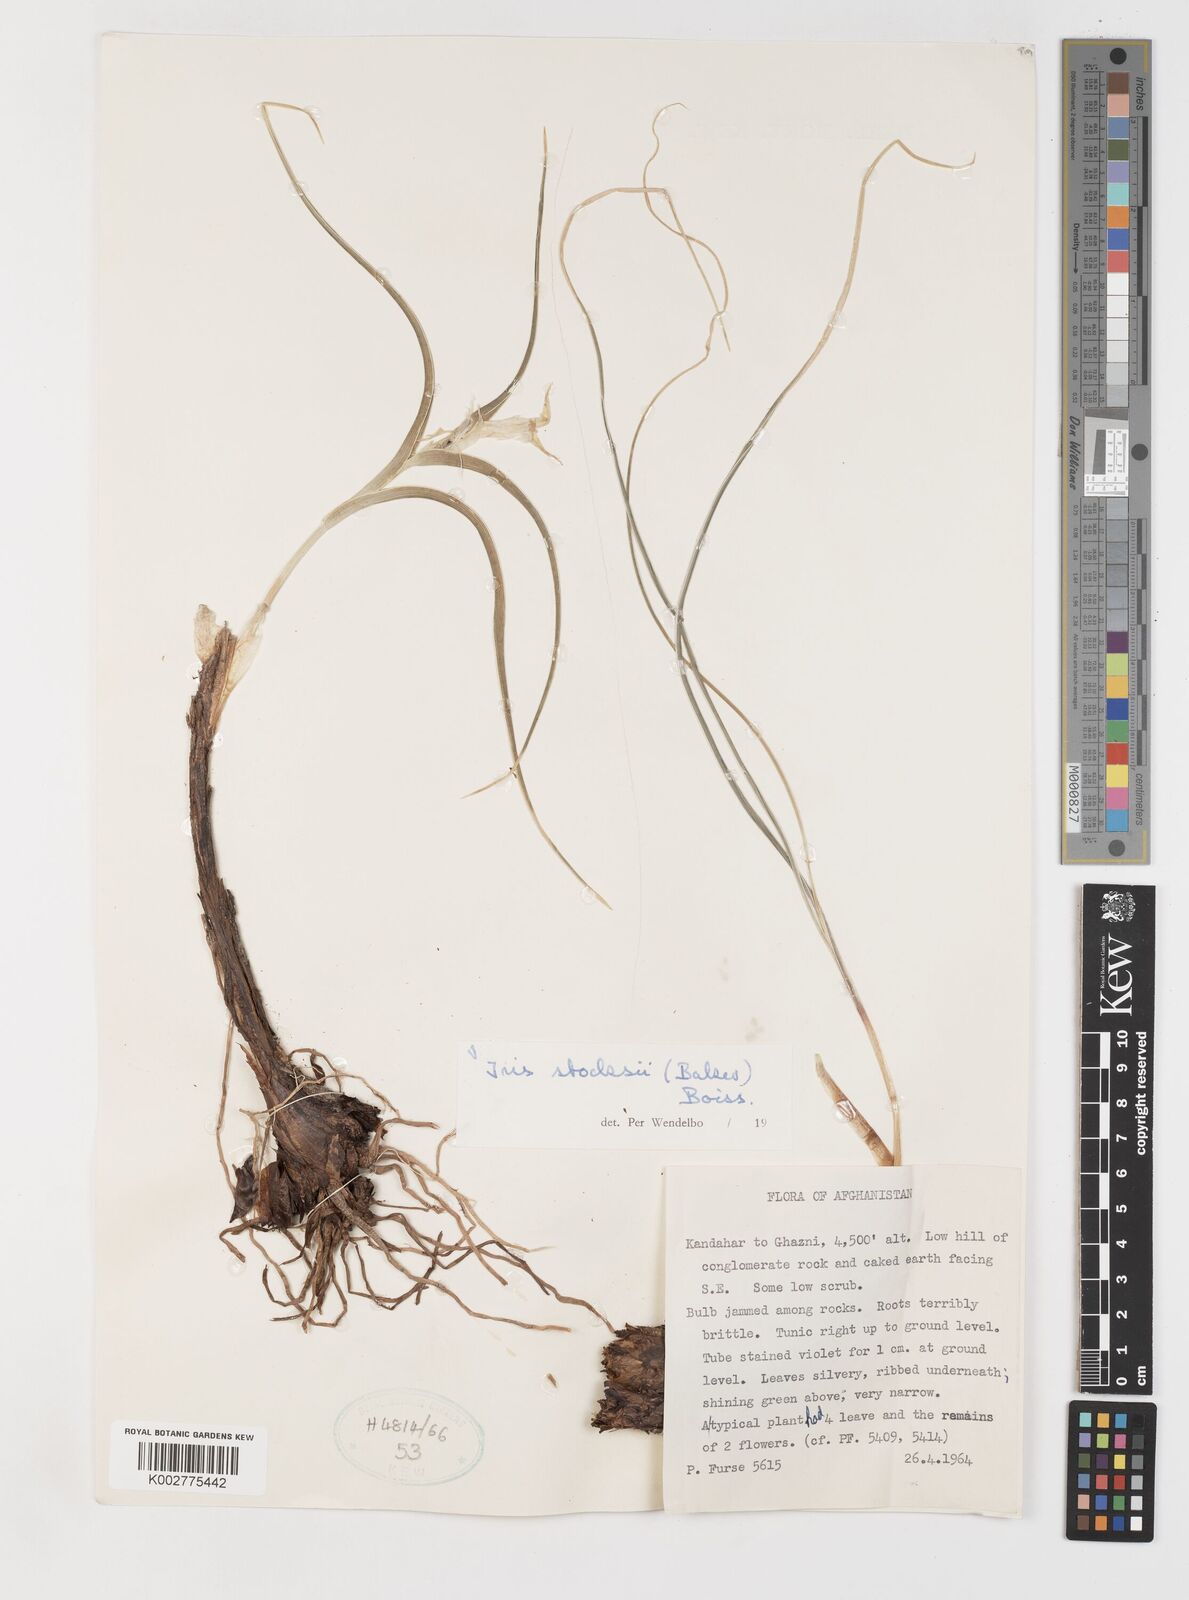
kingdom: Plantae
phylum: Tracheophyta
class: Liliopsida
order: Asparagales
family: Iridaceae
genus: Iris
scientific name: Iris stocksii
